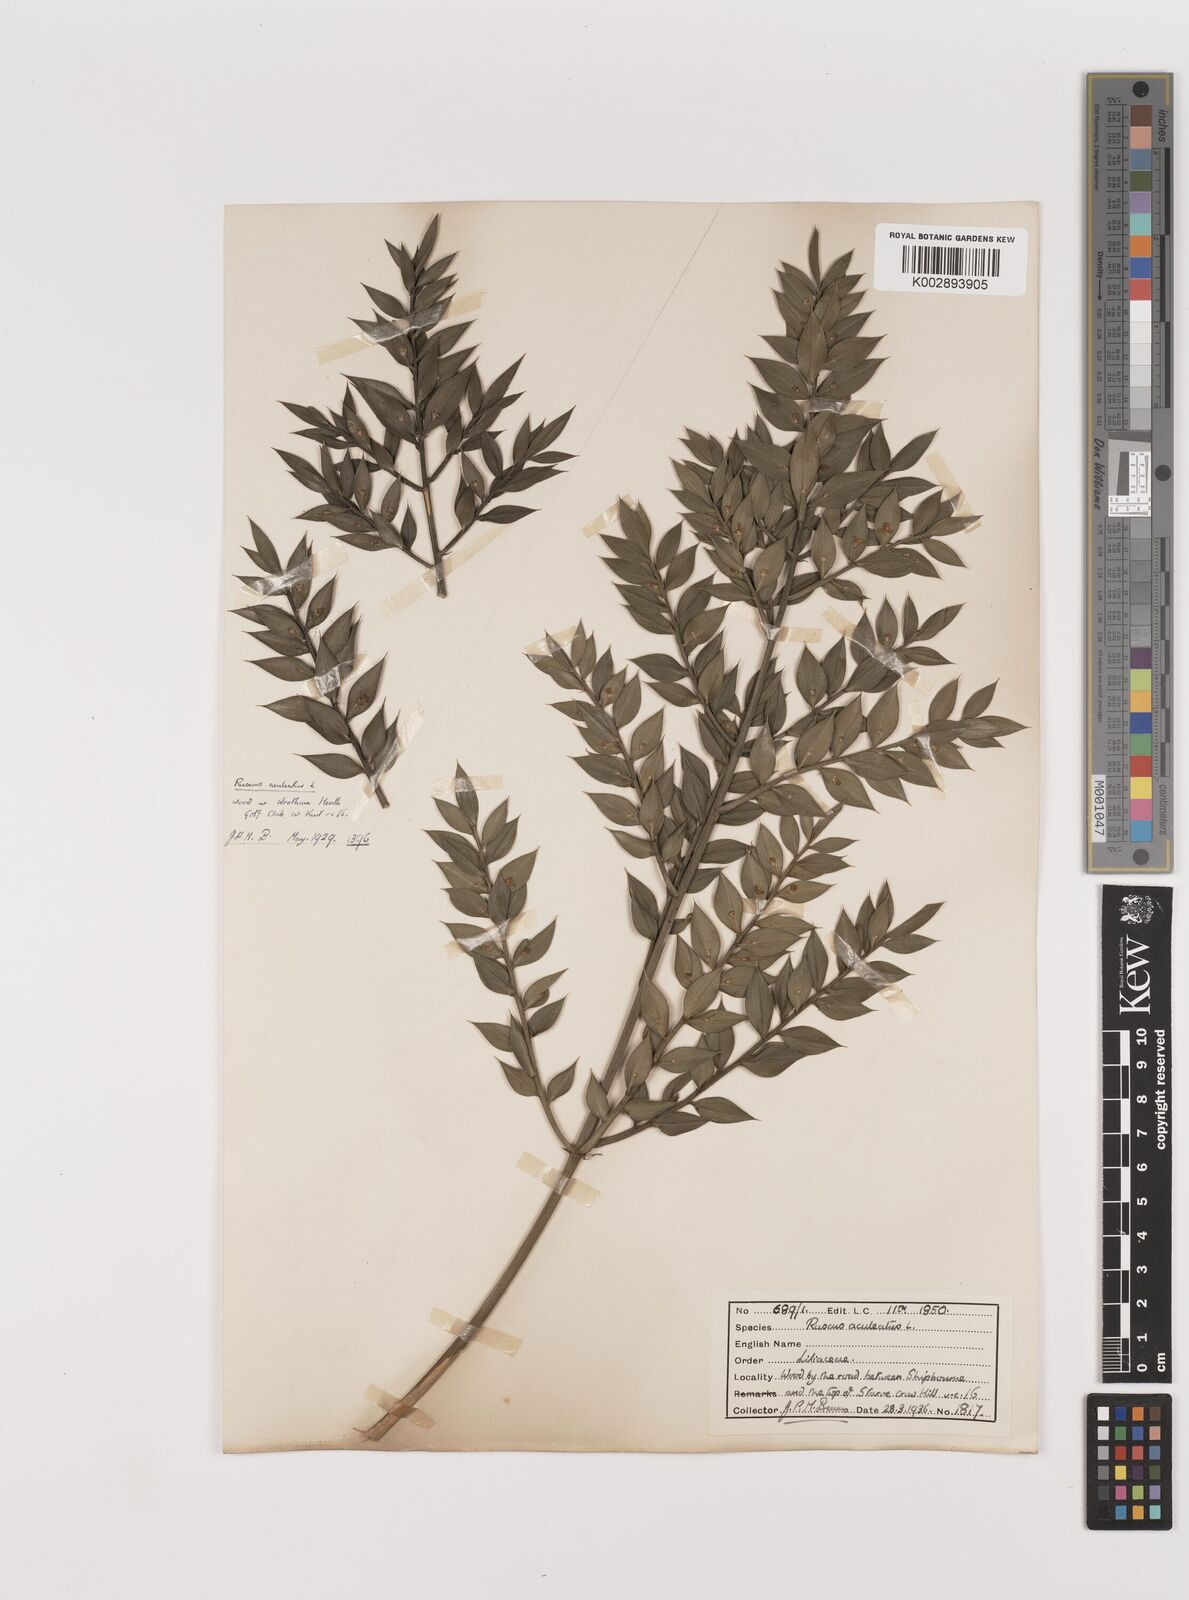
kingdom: Plantae
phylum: Tracheophyta
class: Liliopsida
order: Asparagales
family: Asparagaceae
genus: Ruscus
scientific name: Ruscus aculeatus
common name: Butcher's-broom
